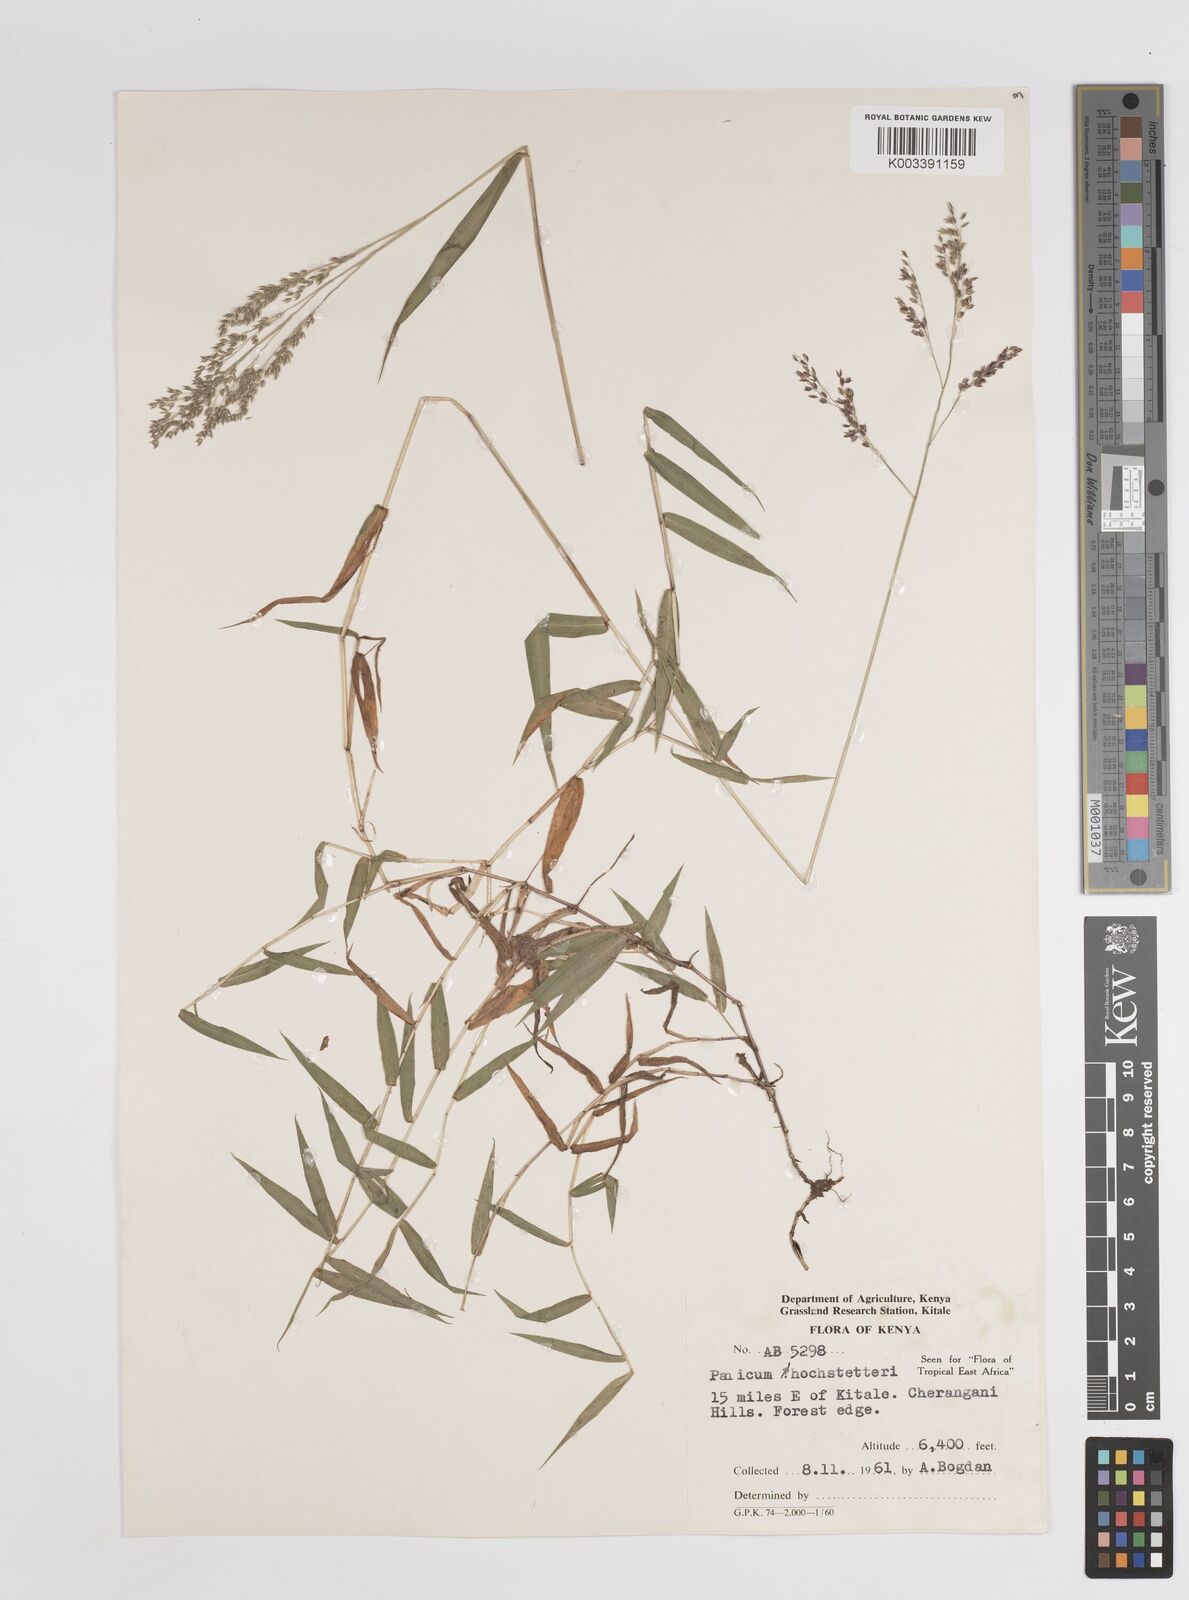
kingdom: Plantae
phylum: Tracheophyta
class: Liliopsida
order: Poales
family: Poaceae
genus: Panicum
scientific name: Panicum hochstetteri
